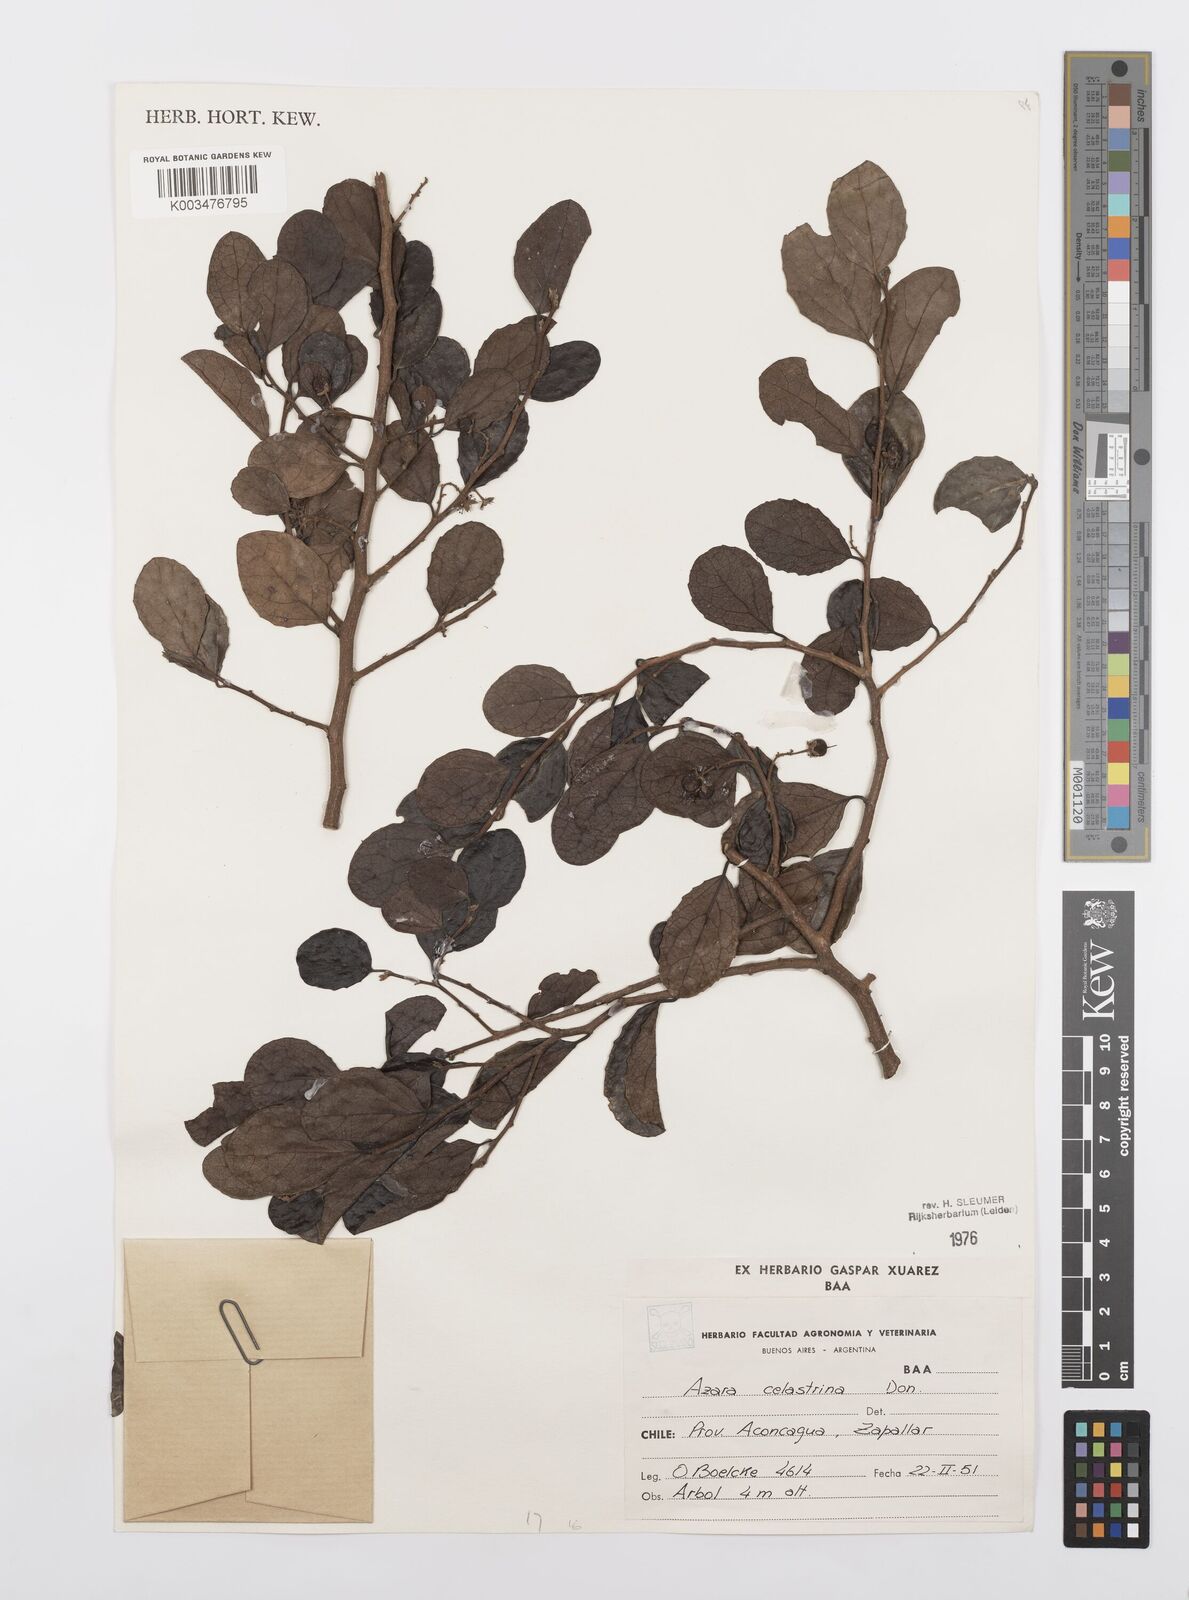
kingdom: Plantae
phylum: Tracheophyta
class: Magnoliopsida
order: Malpighiales
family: Salicaceae
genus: Azara
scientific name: Azara celastrina
